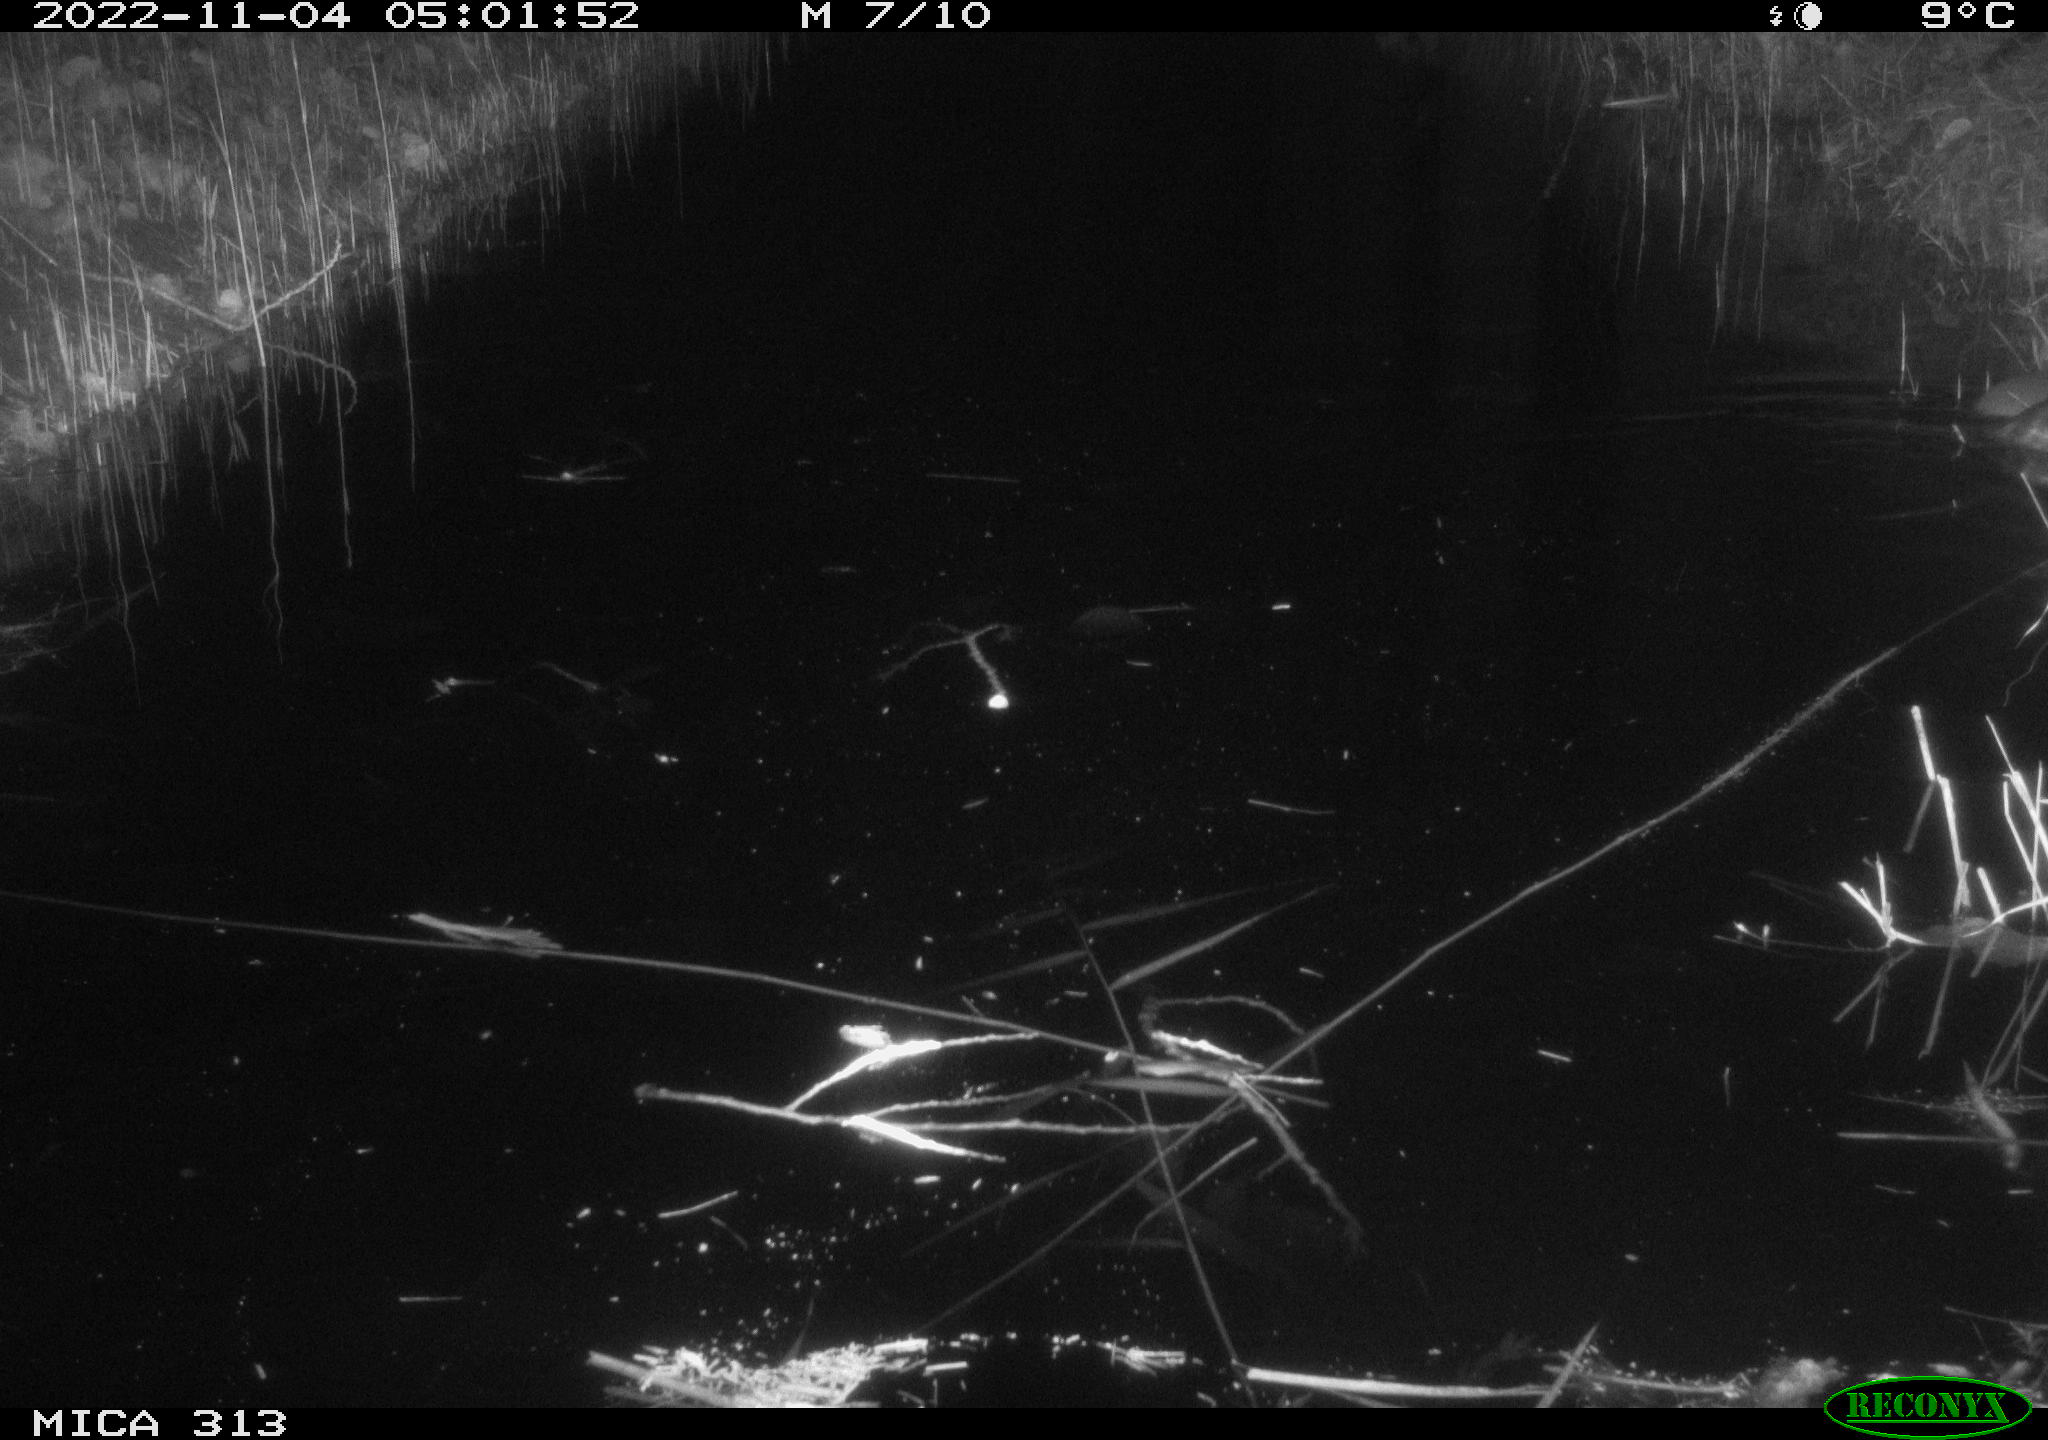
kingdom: Animalia
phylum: Chordata
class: Mammalia
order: Rodentia
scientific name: Rodentia
